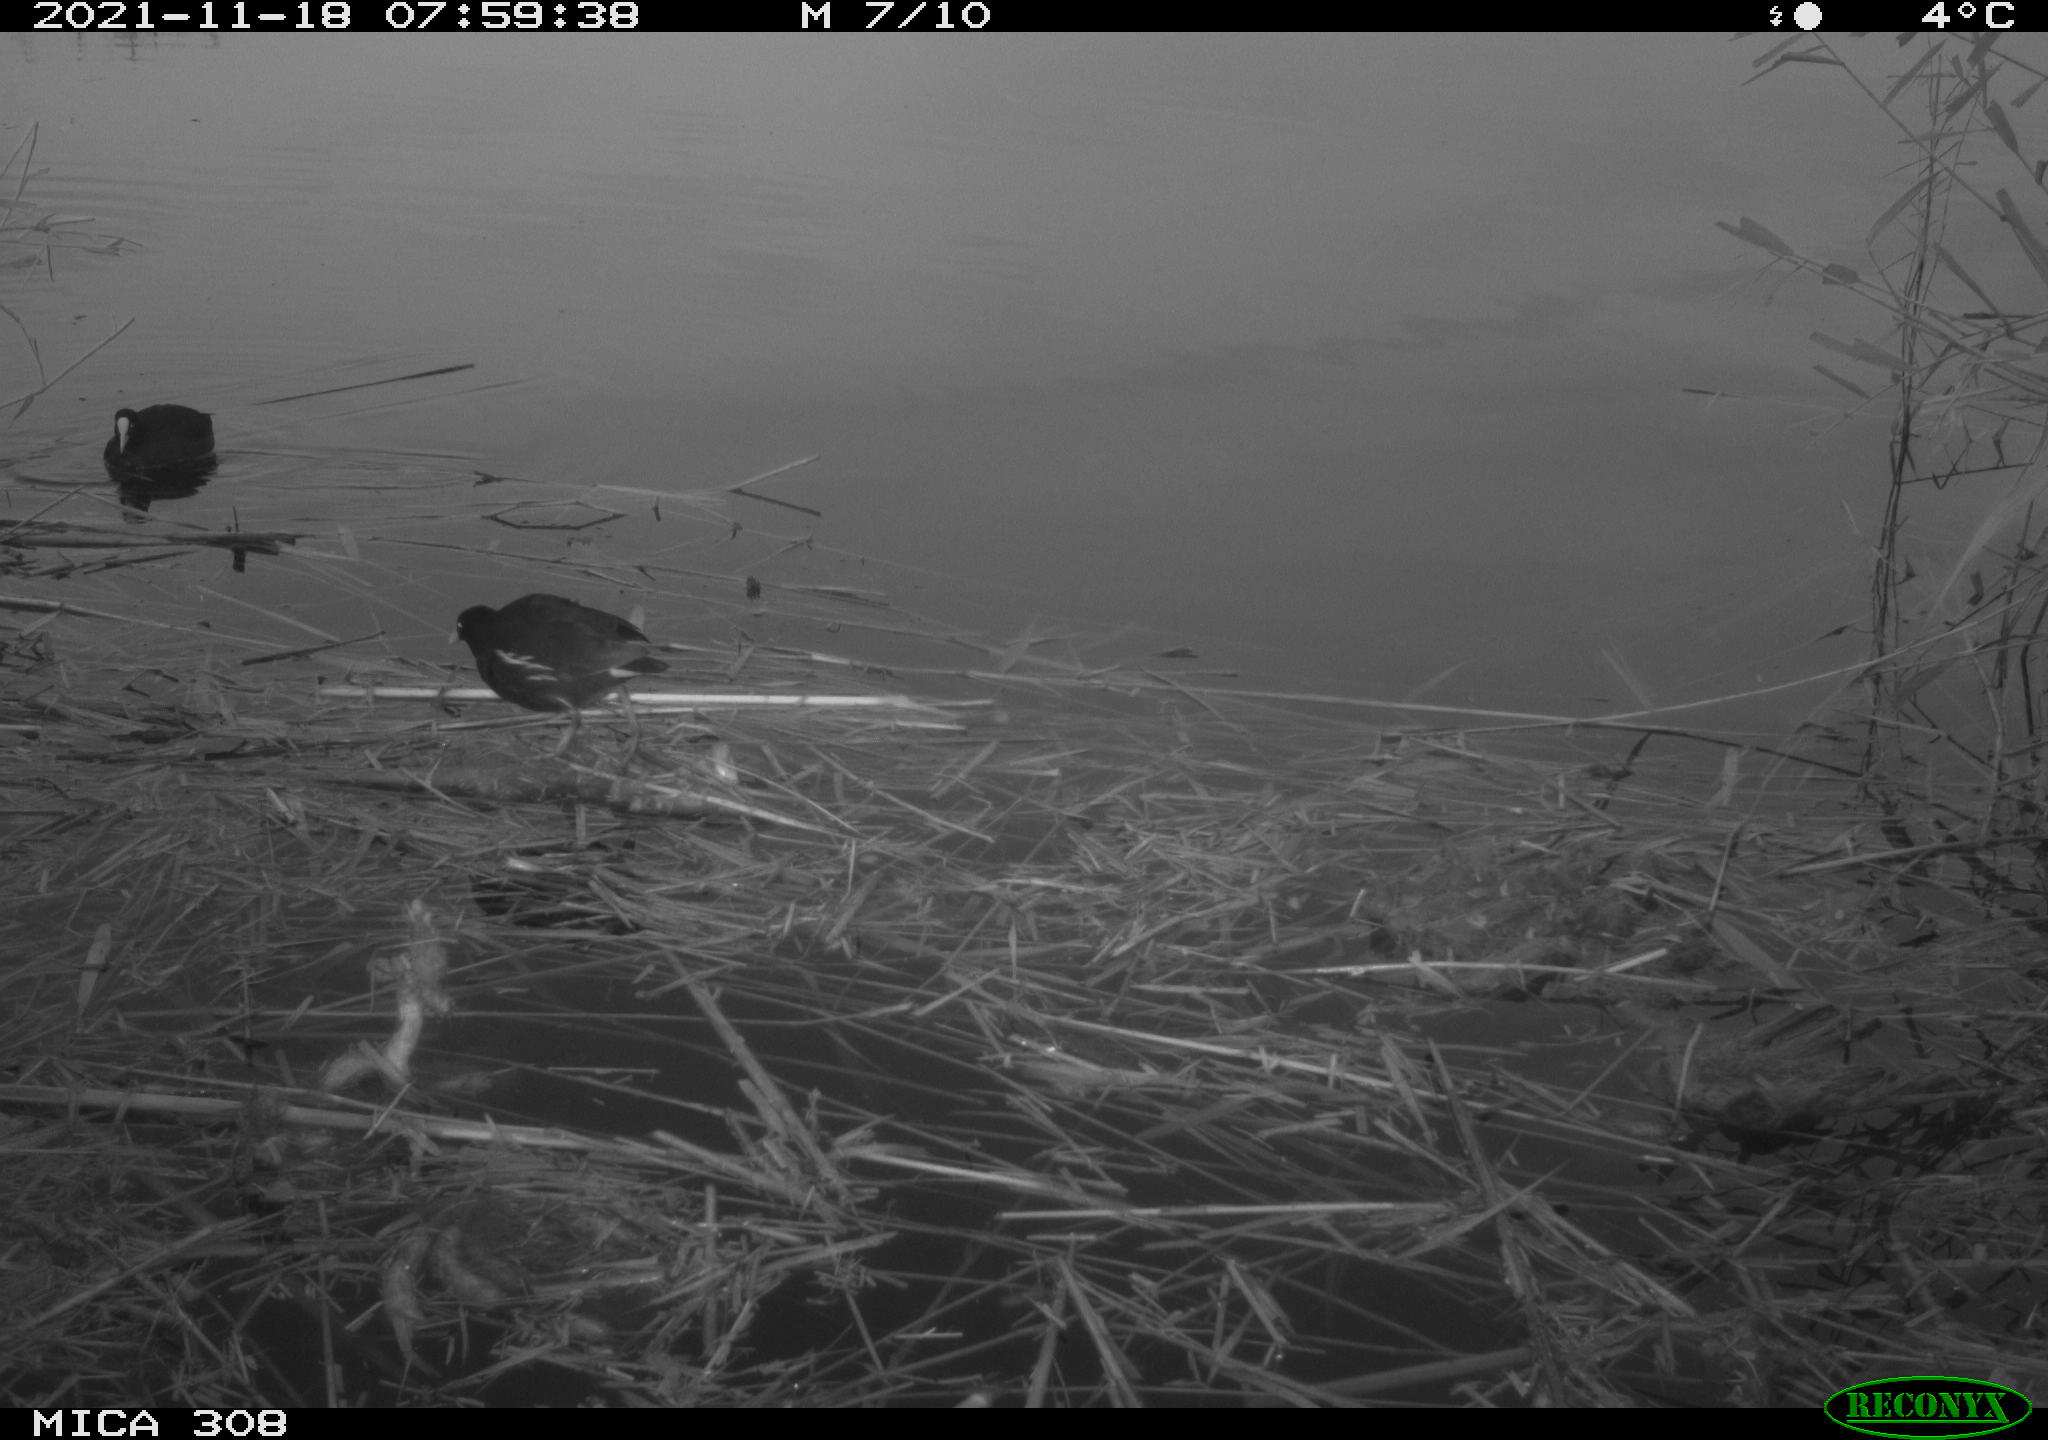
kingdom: Animalia
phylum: Chordata
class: Aves
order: Gruiformes
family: Rallidae
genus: Gallinula
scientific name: Gallinula chloropus
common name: Common moorhen
